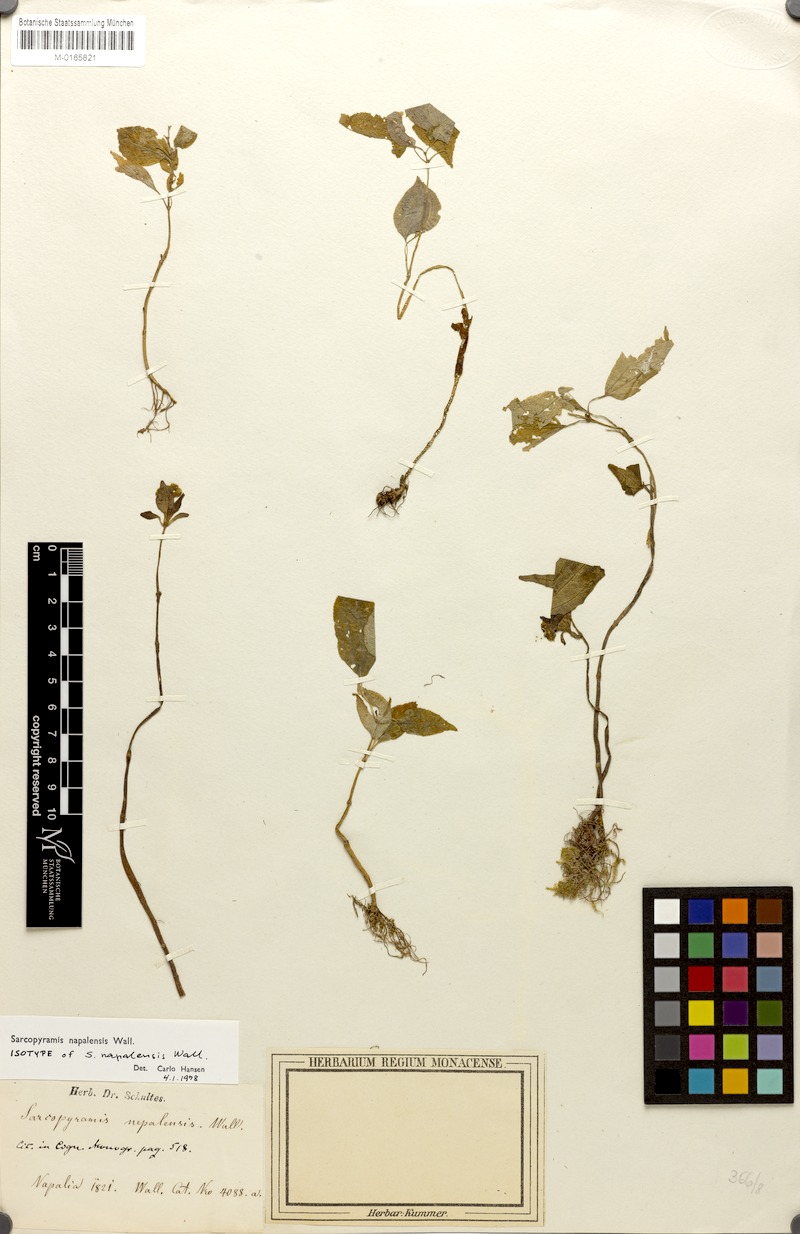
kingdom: Plantae
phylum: Tracheophyta
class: Magnoliopsida
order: Myrtales
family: Melastomataceae
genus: Sarcopyramis
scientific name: Sarcopyramis napalensis
